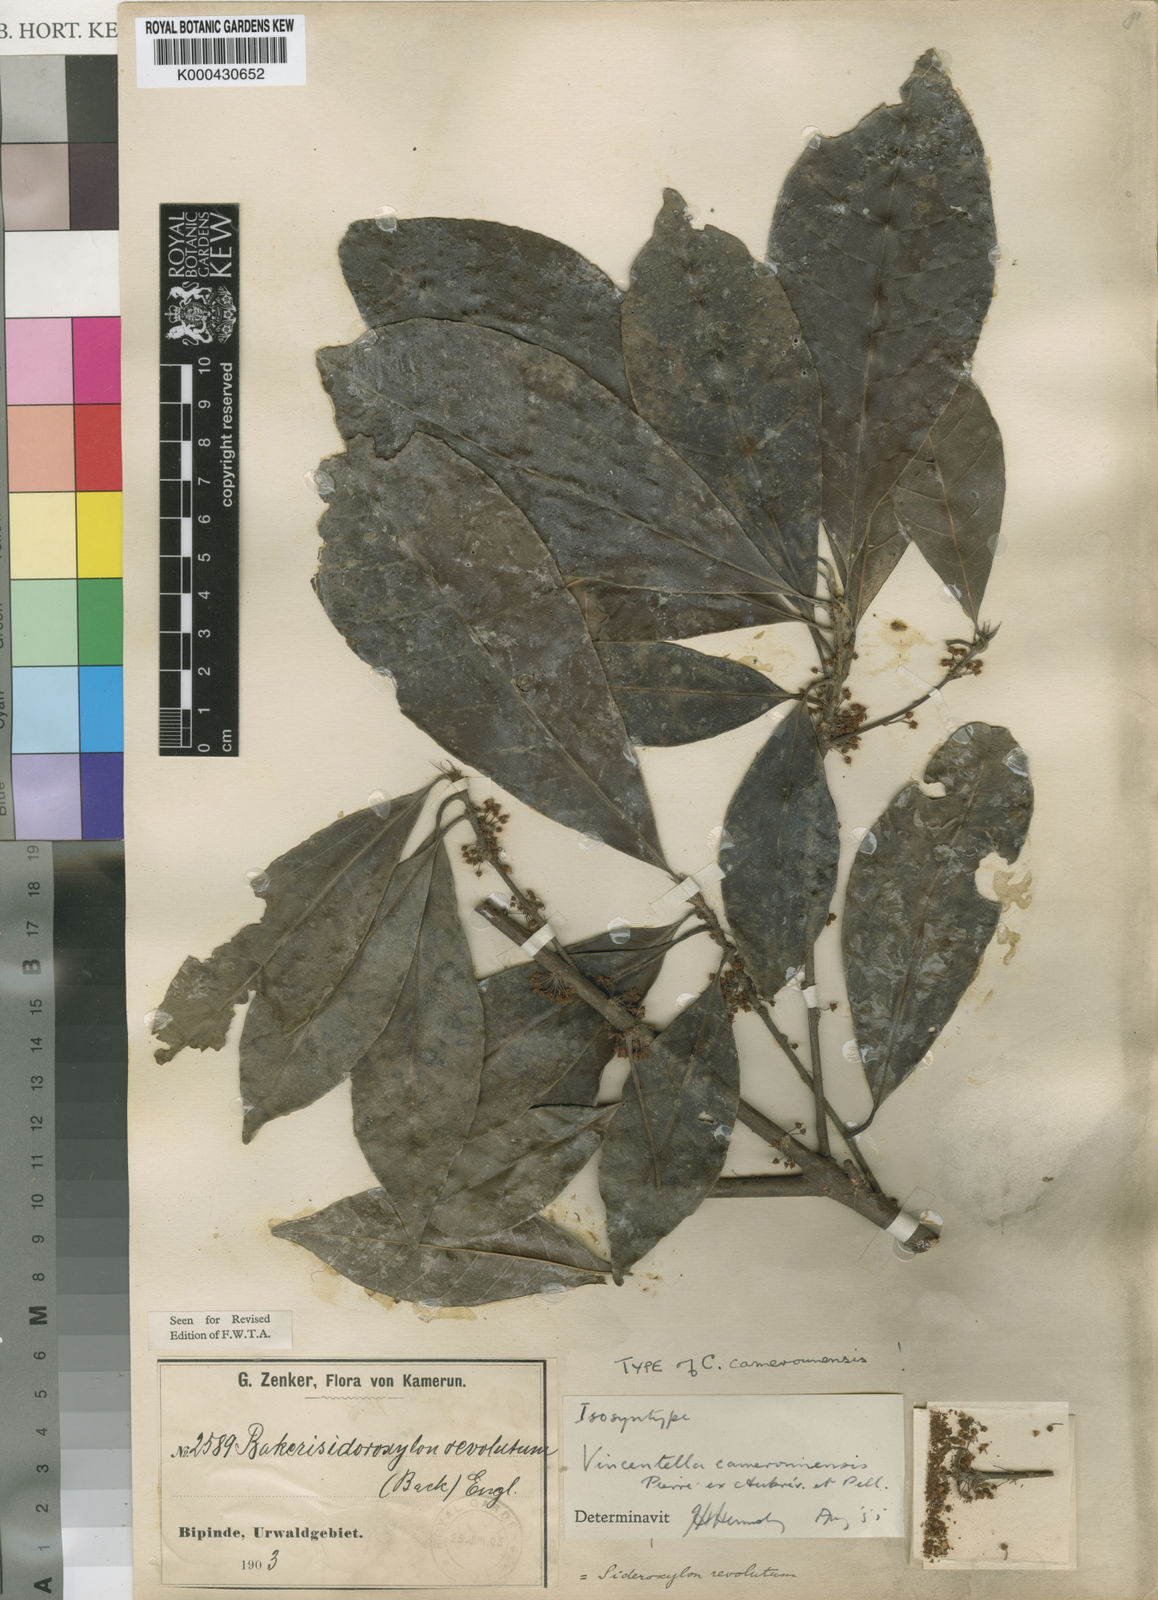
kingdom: Plantae
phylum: Tracheophyta
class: Magnoliopsida
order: Ericales
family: Sapotaceae
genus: Synsepalum
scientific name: Synsepalum
